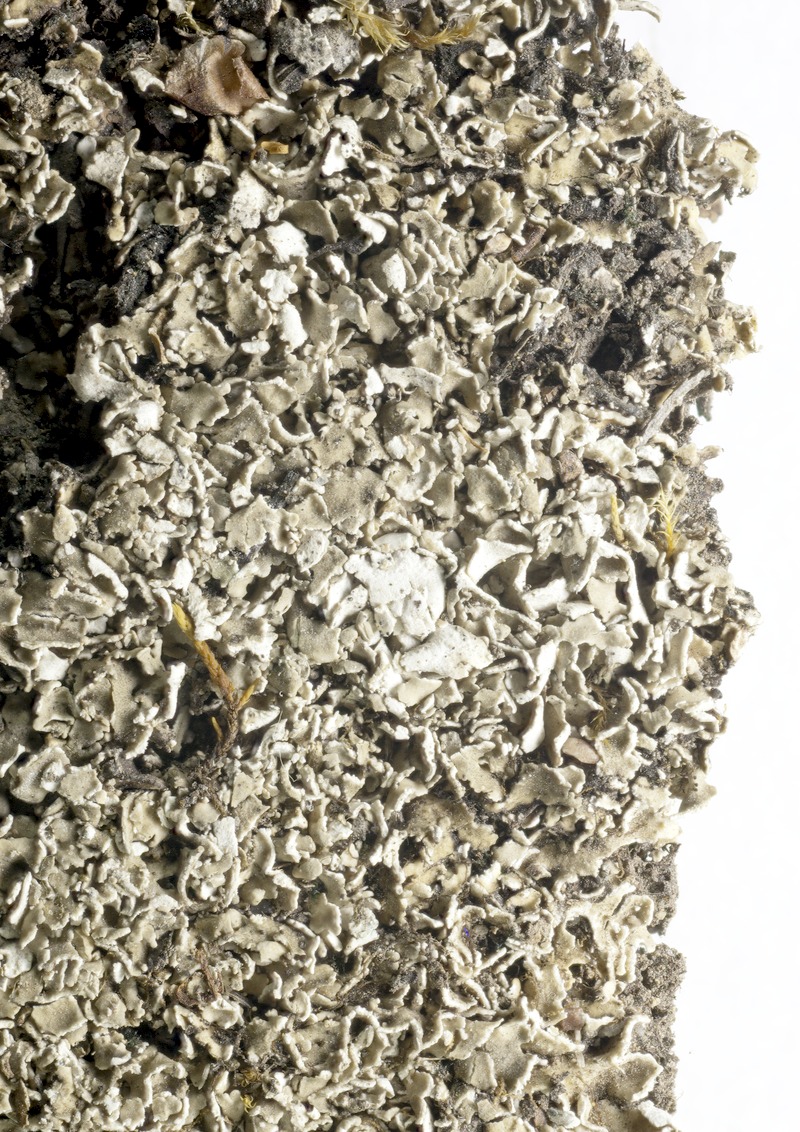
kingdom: Fungi
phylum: Ascomycota
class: Lecanoromycetes
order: Lecanorales
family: Cladoniaceae
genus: Cladonia
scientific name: Cladonia fimbriata
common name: Powdered trumpet lichen
